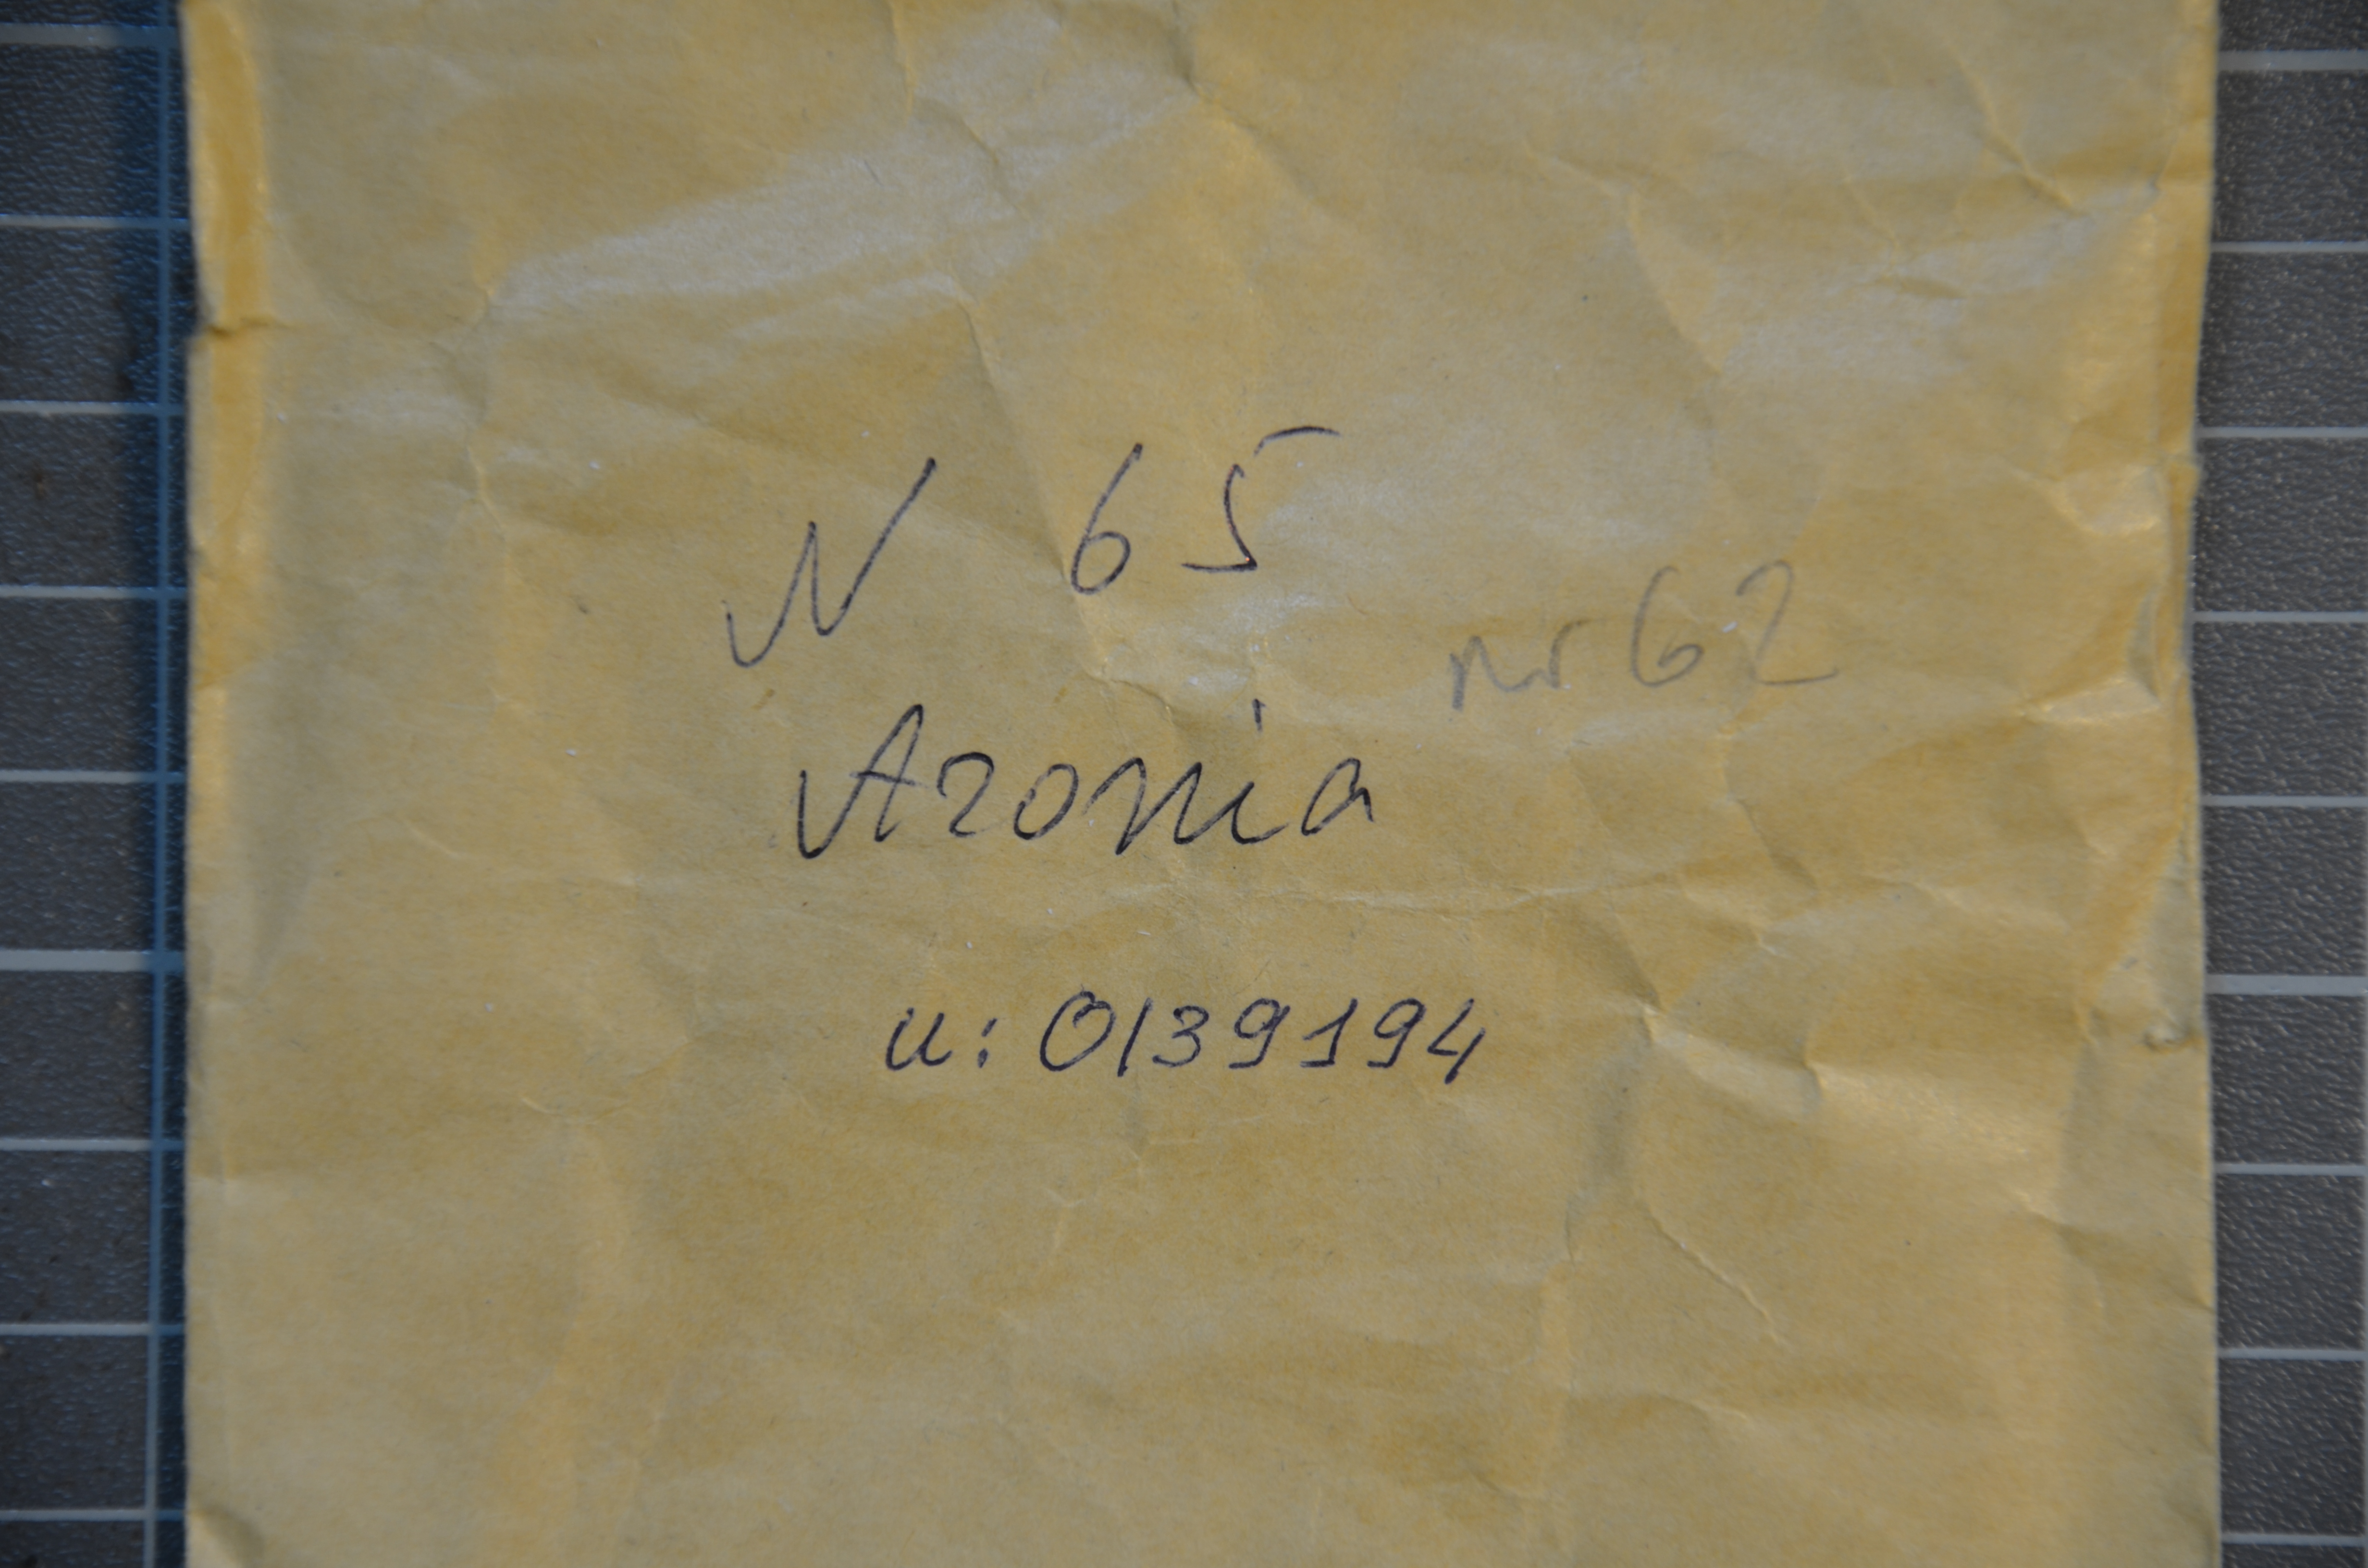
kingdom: Plantae
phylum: Tracheophyta
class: Magnoliopsida
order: Rosales
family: Rosaceae
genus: Sorbaronia
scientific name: Sorbaronia arsenii
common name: Arsène's mountain-ash
